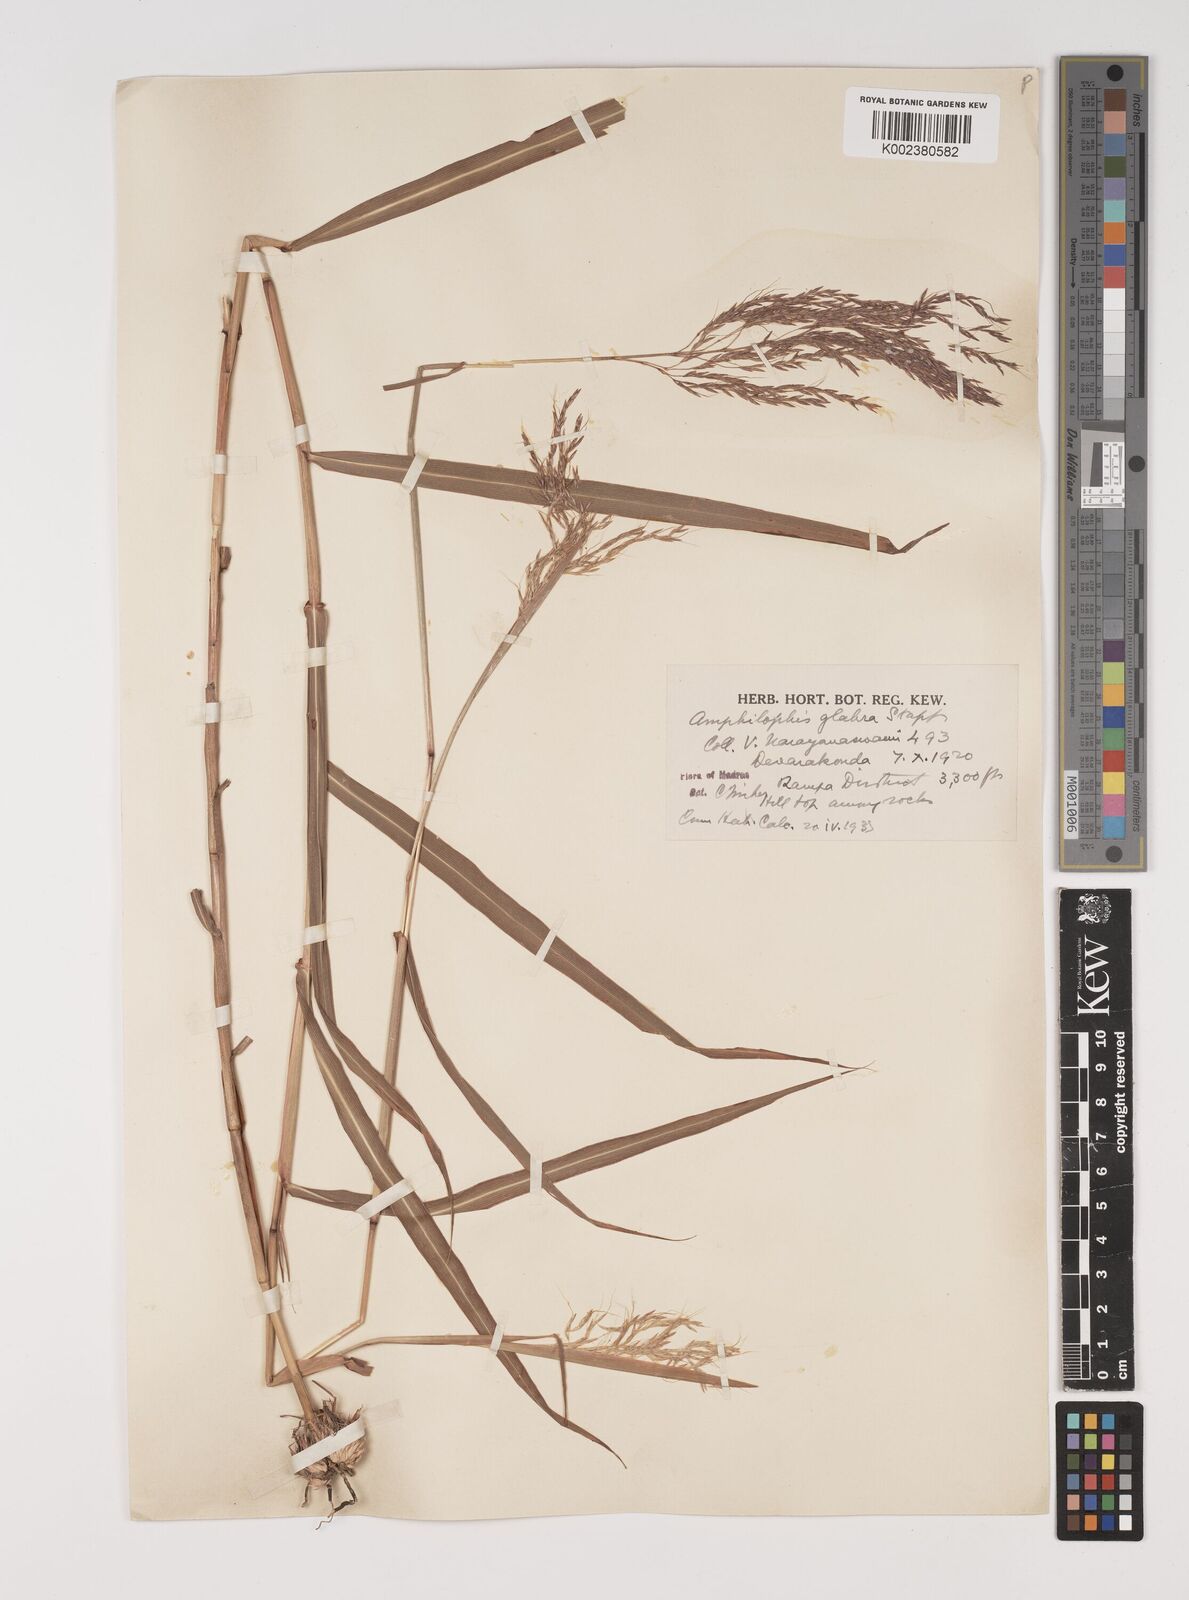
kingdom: Plantae
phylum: Tracheophyta
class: Liliopsida
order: Poales
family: Poaceae
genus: Bothriochloa
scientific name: Bothriochloa bladhii
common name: Caucasian bluestem
